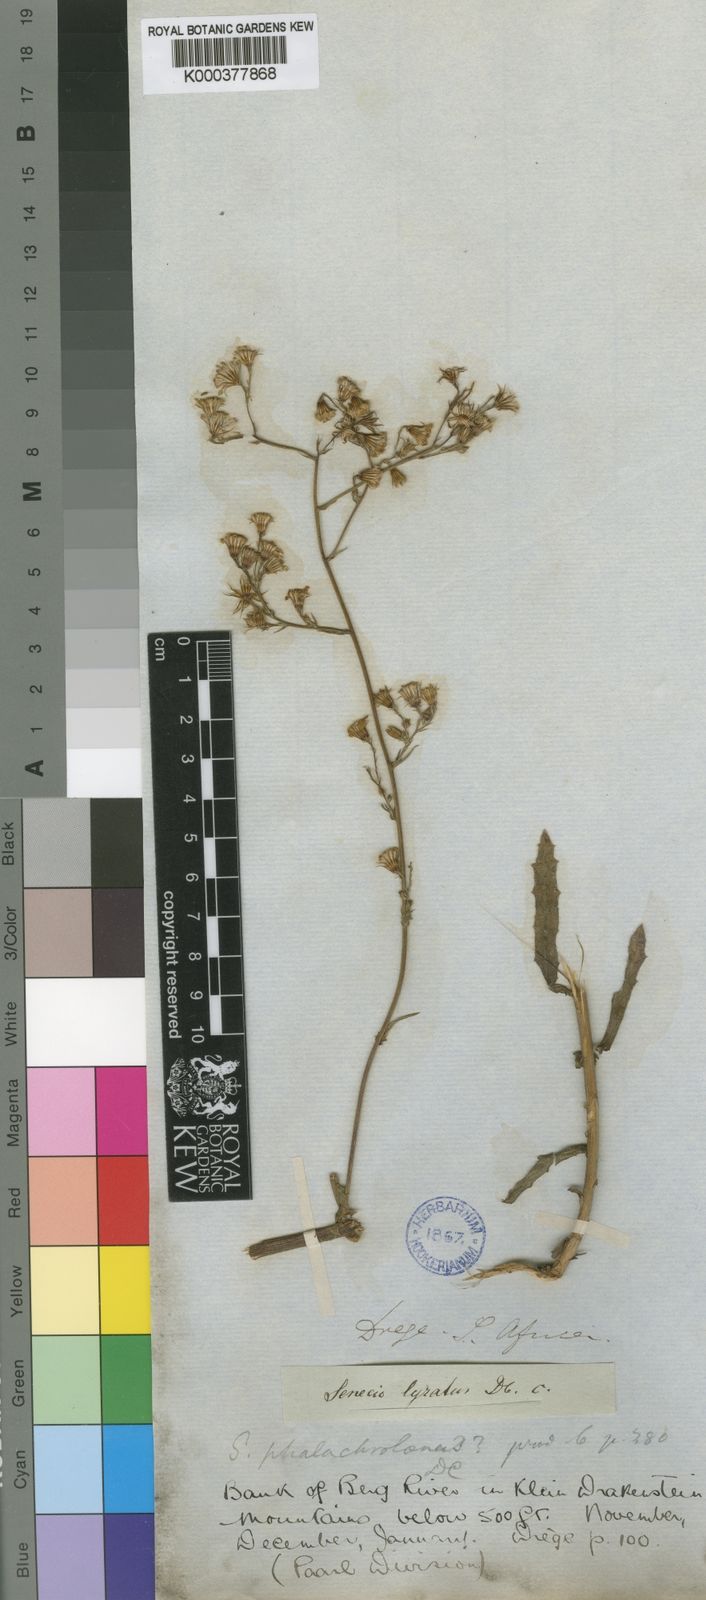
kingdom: Plantae
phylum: Tracheophyta
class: Magnoliopsida
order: Asterales
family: Asteraceae
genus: Senecio
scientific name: Senecio phalachrolaenus
